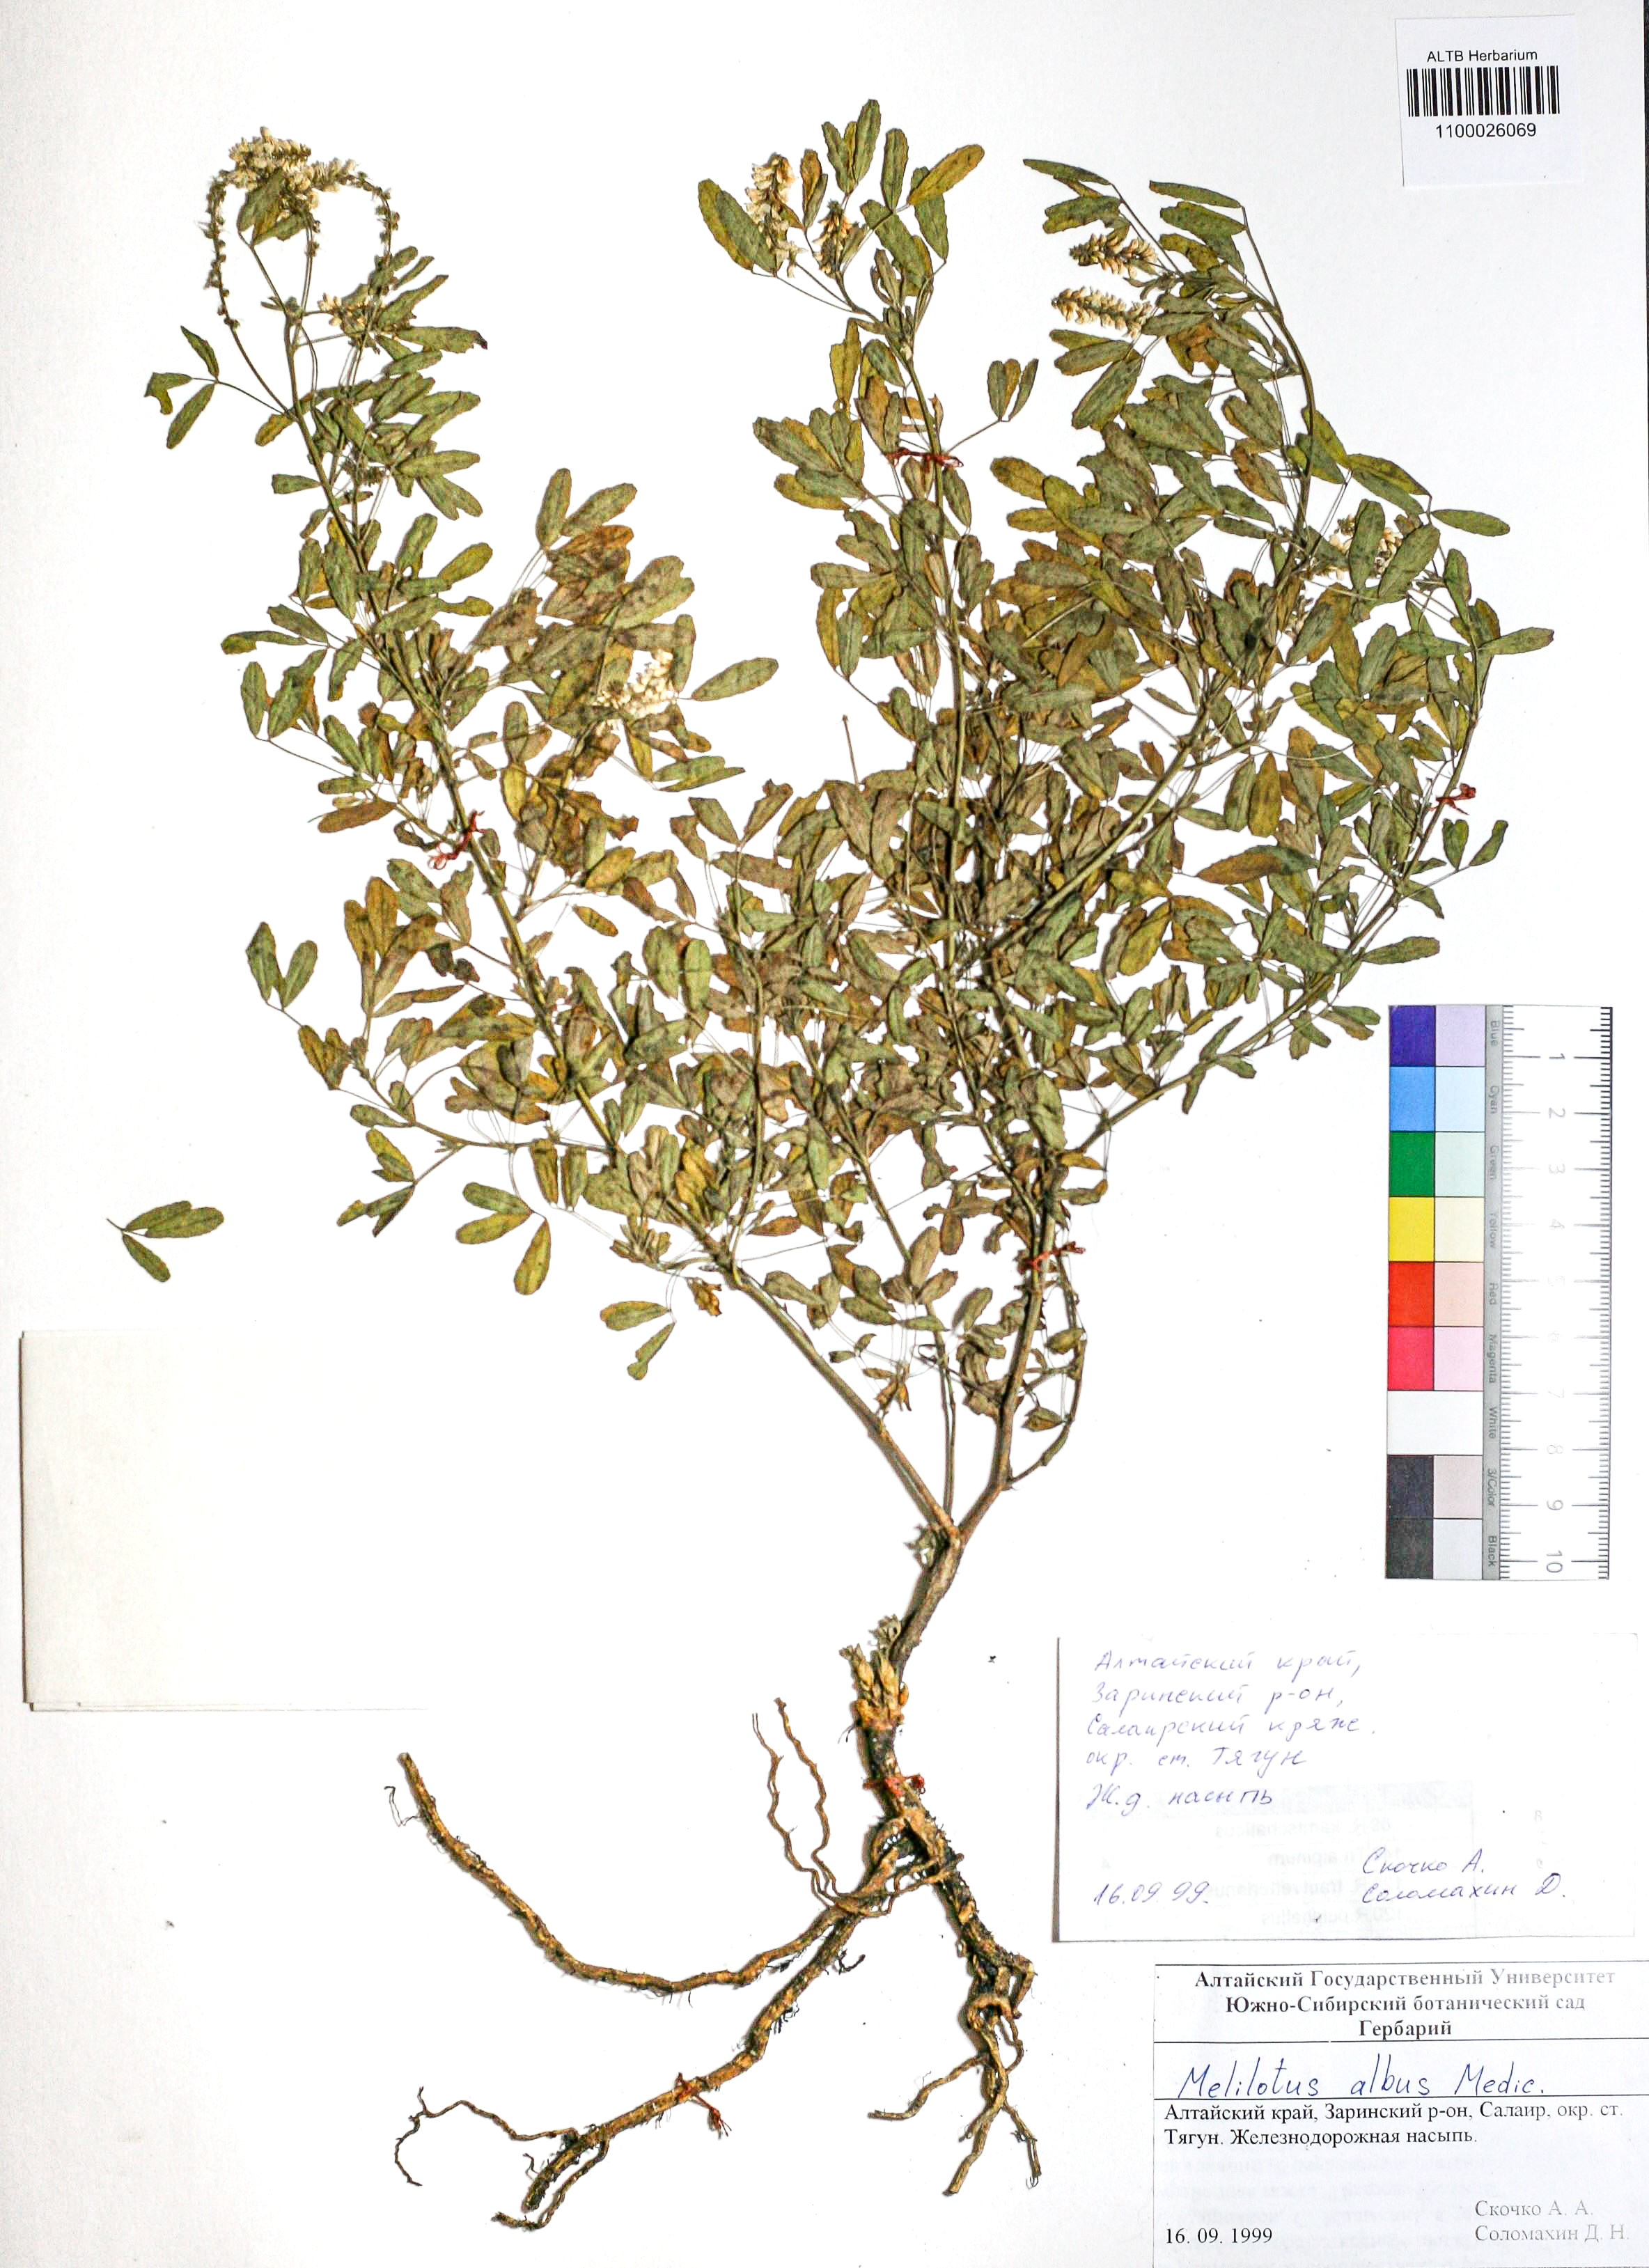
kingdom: Plantae
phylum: Tracheophyta
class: Magnoliopsida
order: Fabales
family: Fabaceae
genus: Melilotus
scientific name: Melilotus albus
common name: White melilot
